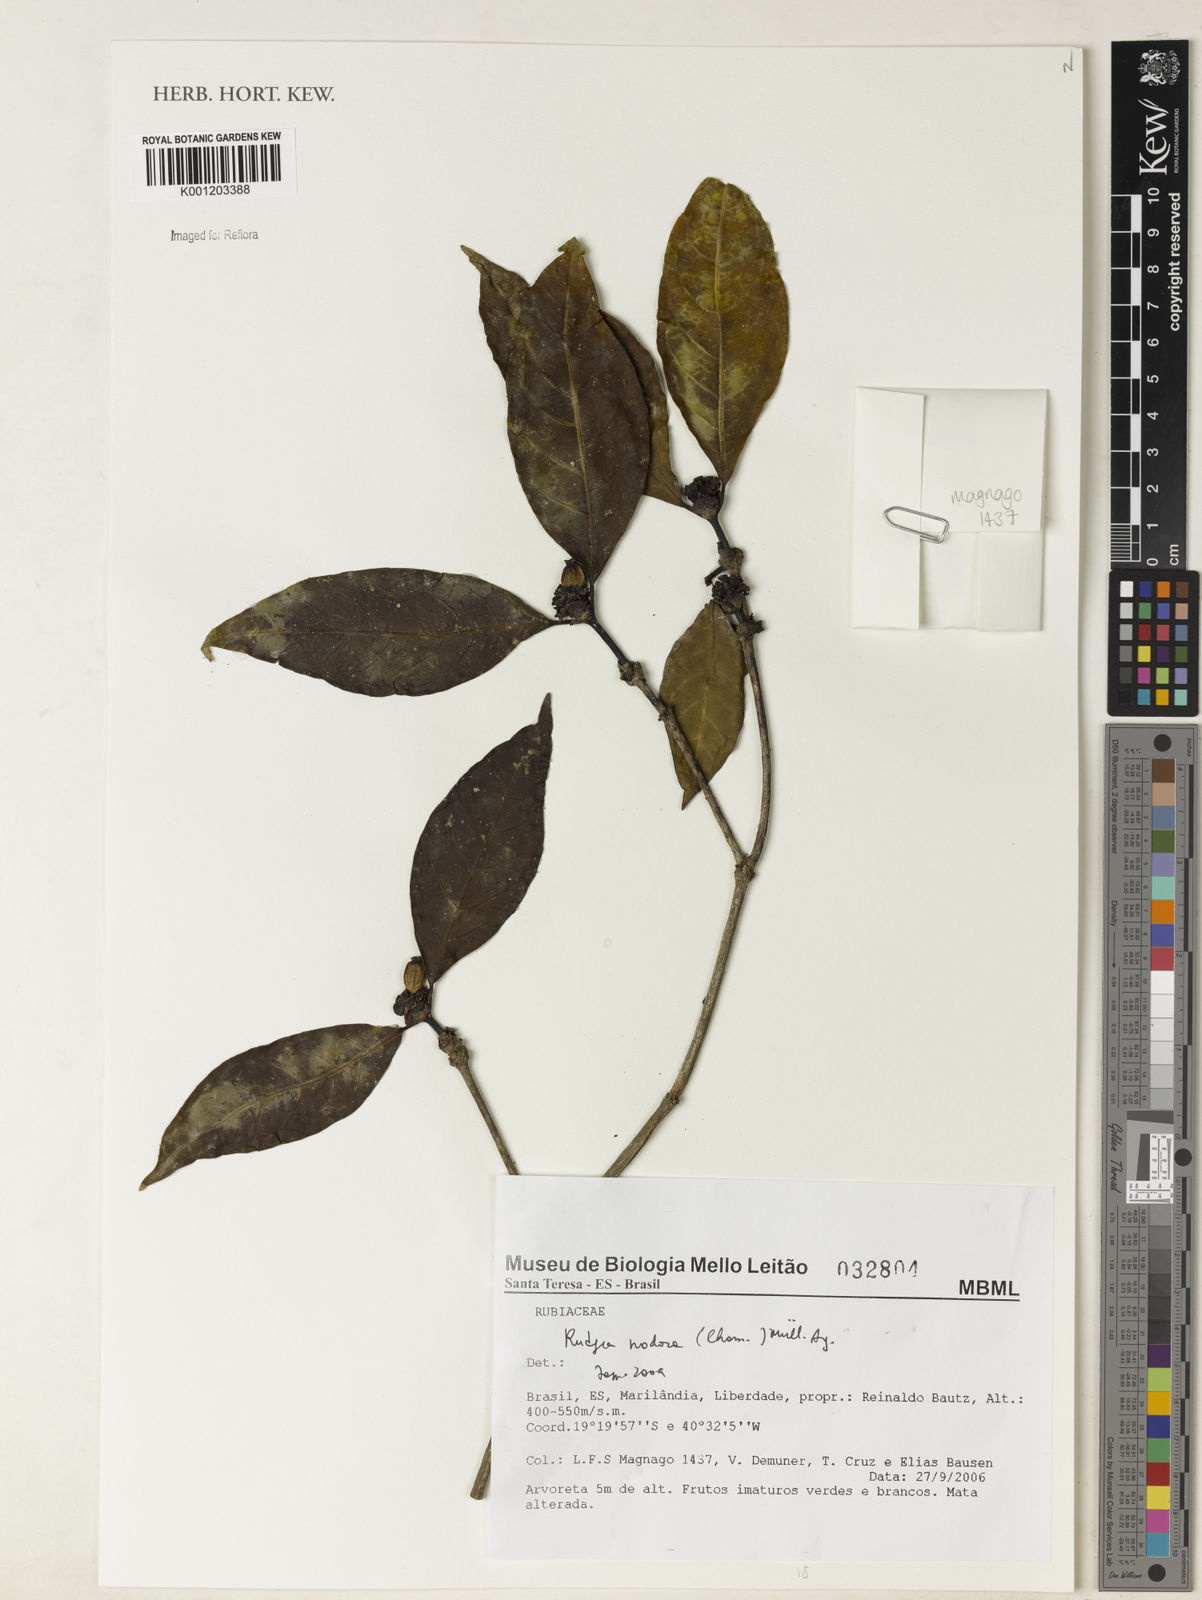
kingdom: Plantae
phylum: Tracheophyta
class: Magnoliopsida
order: Gentianales
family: Rubiaceae
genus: Rudgea
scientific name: Rudgea nodosa
